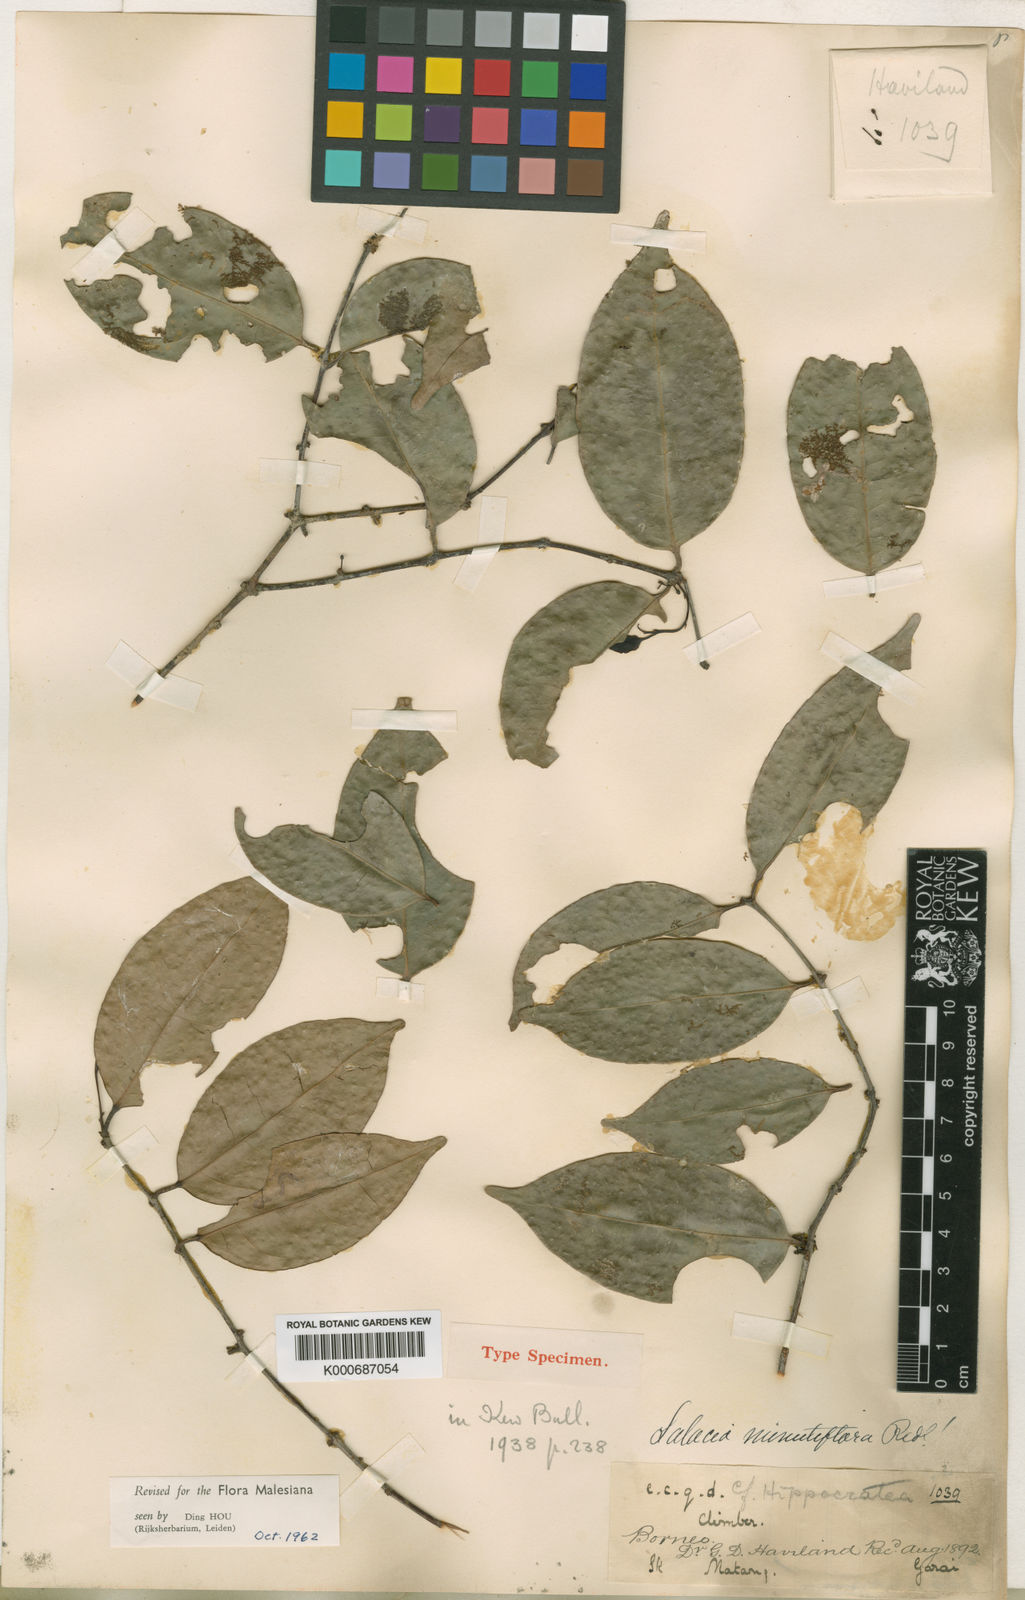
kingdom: Plantae
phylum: Tracheophyta
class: Magnoliopsida
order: Celastrales
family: Celastraceae
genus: Salacia
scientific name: Salacia kalahiensis
